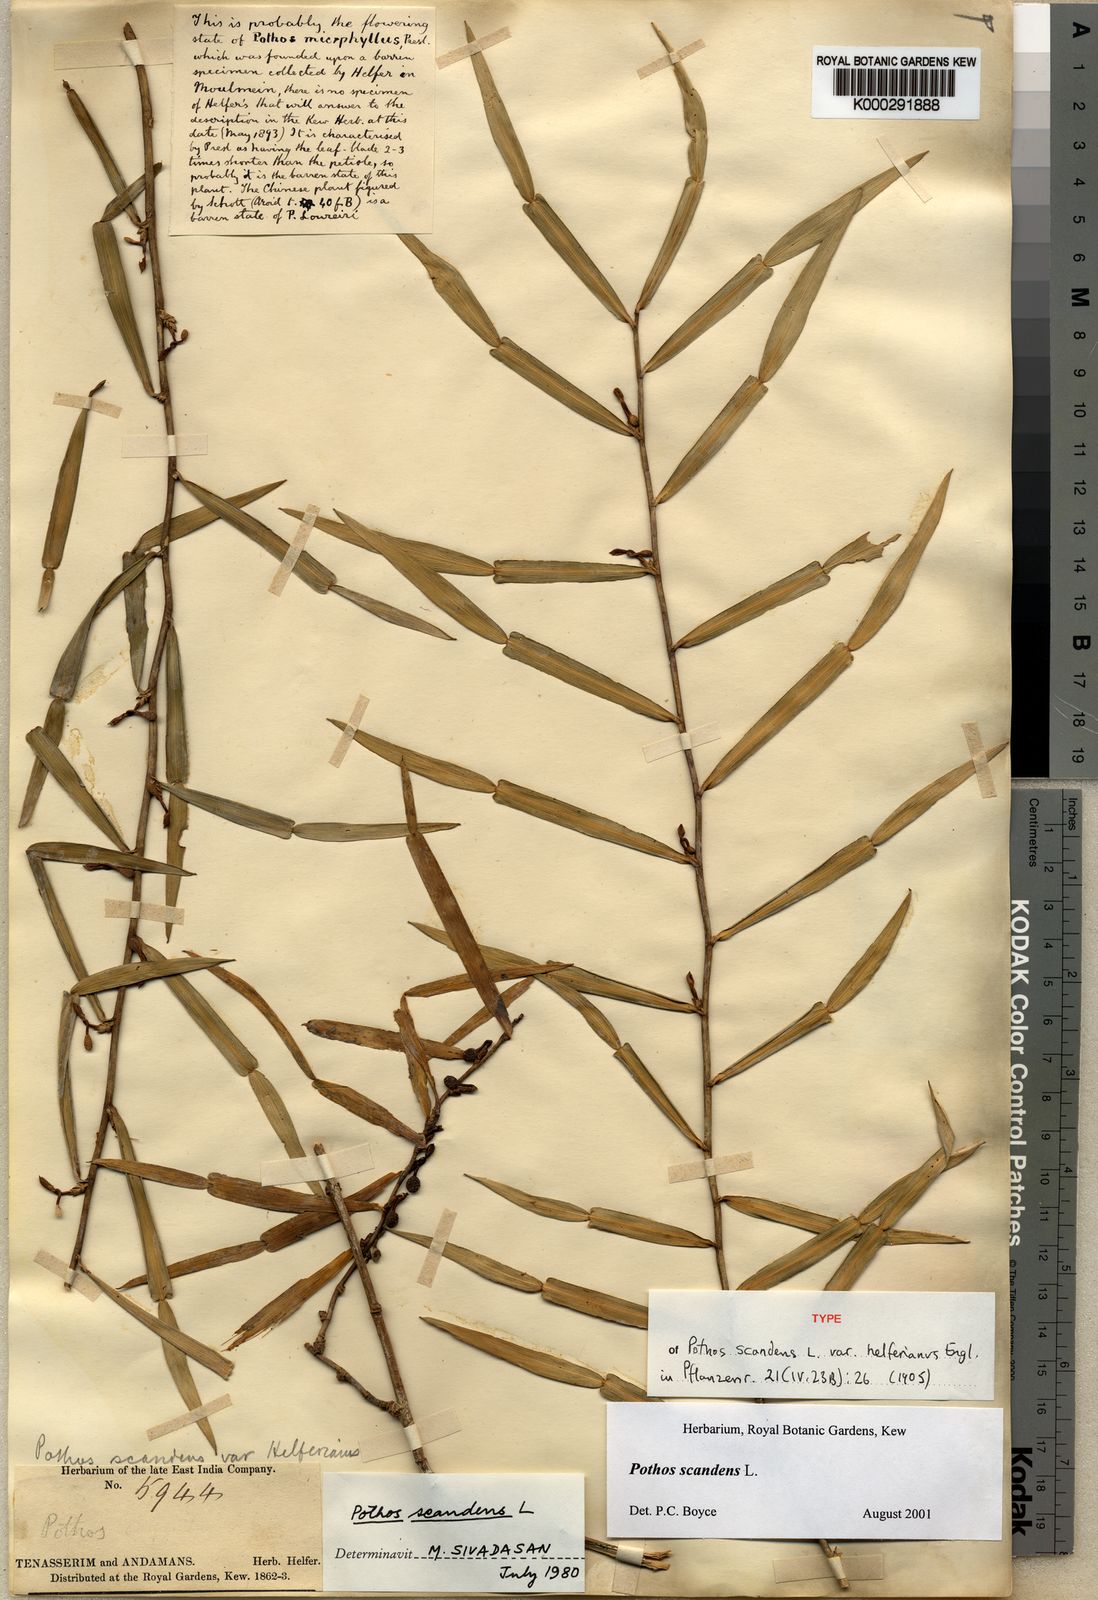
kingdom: Plantae
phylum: Tracheophyta
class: Liliopsida
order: Alismatales
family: Araceae
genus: Pothos
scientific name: Pothos scandens
